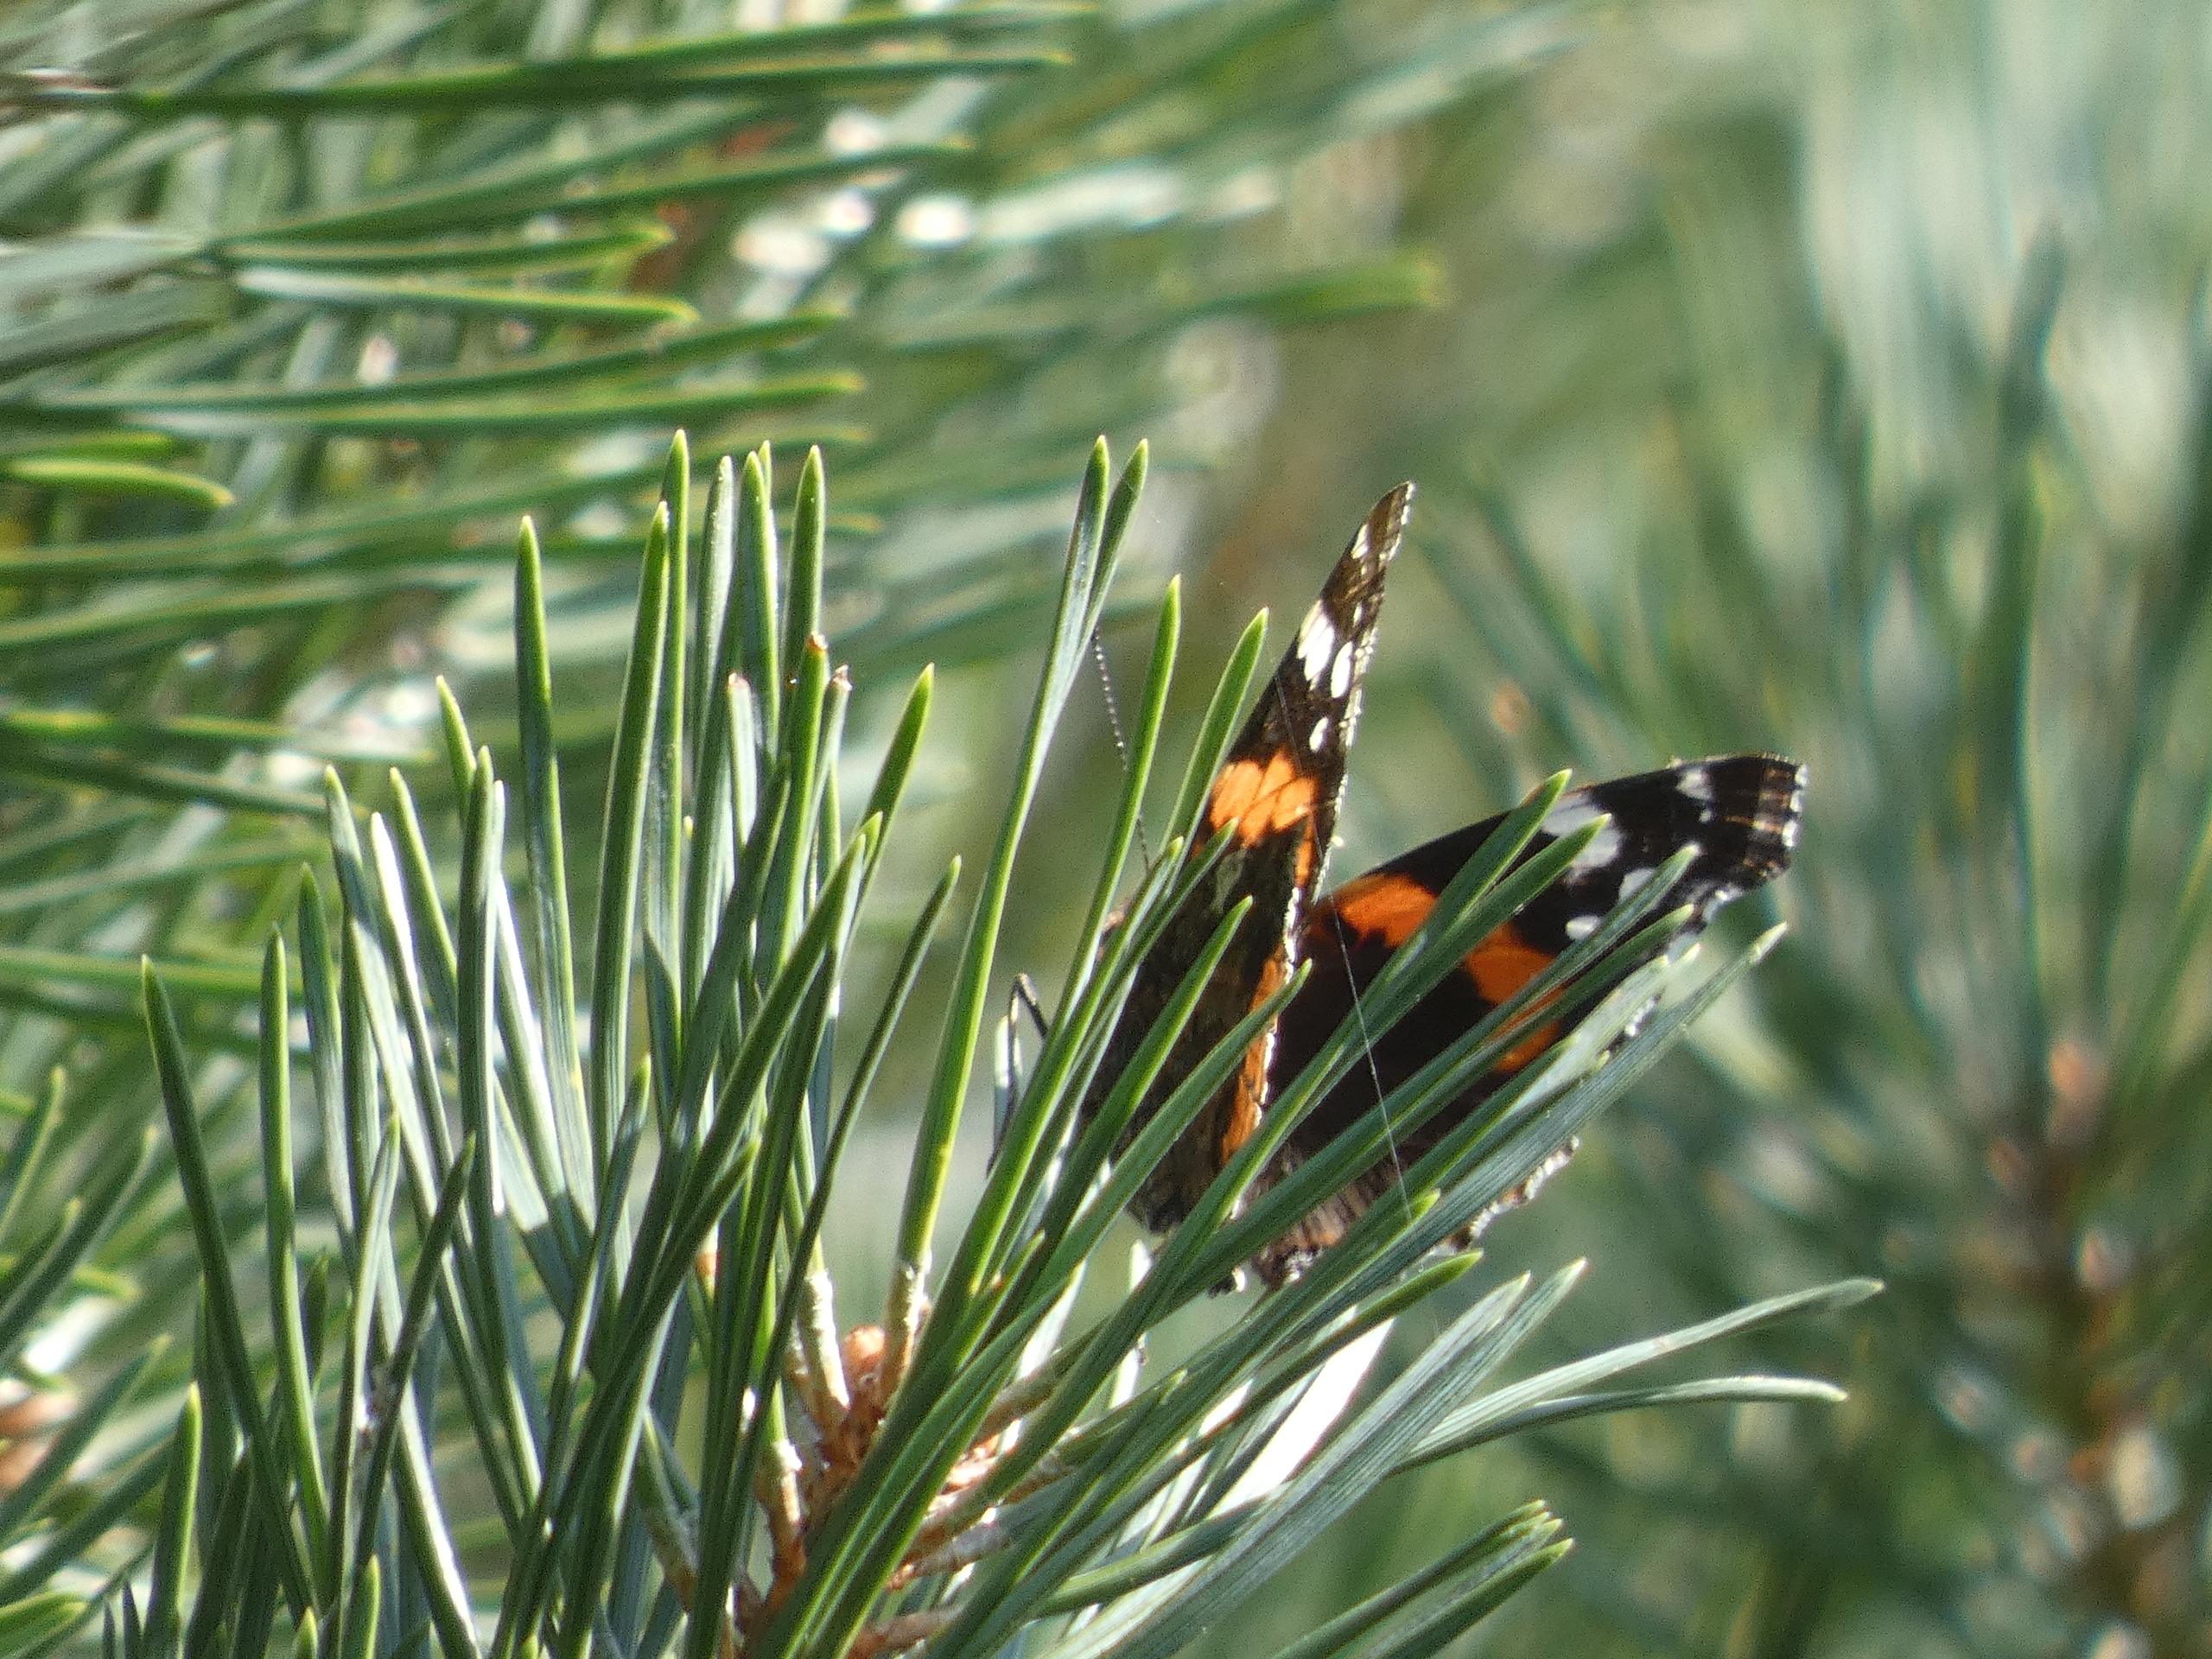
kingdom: Animalia
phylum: Arthropoda
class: Insecta
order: Lepidoptera
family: Nymphalidae
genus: Vanessa
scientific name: Vanessa atalanta
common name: Admiral
